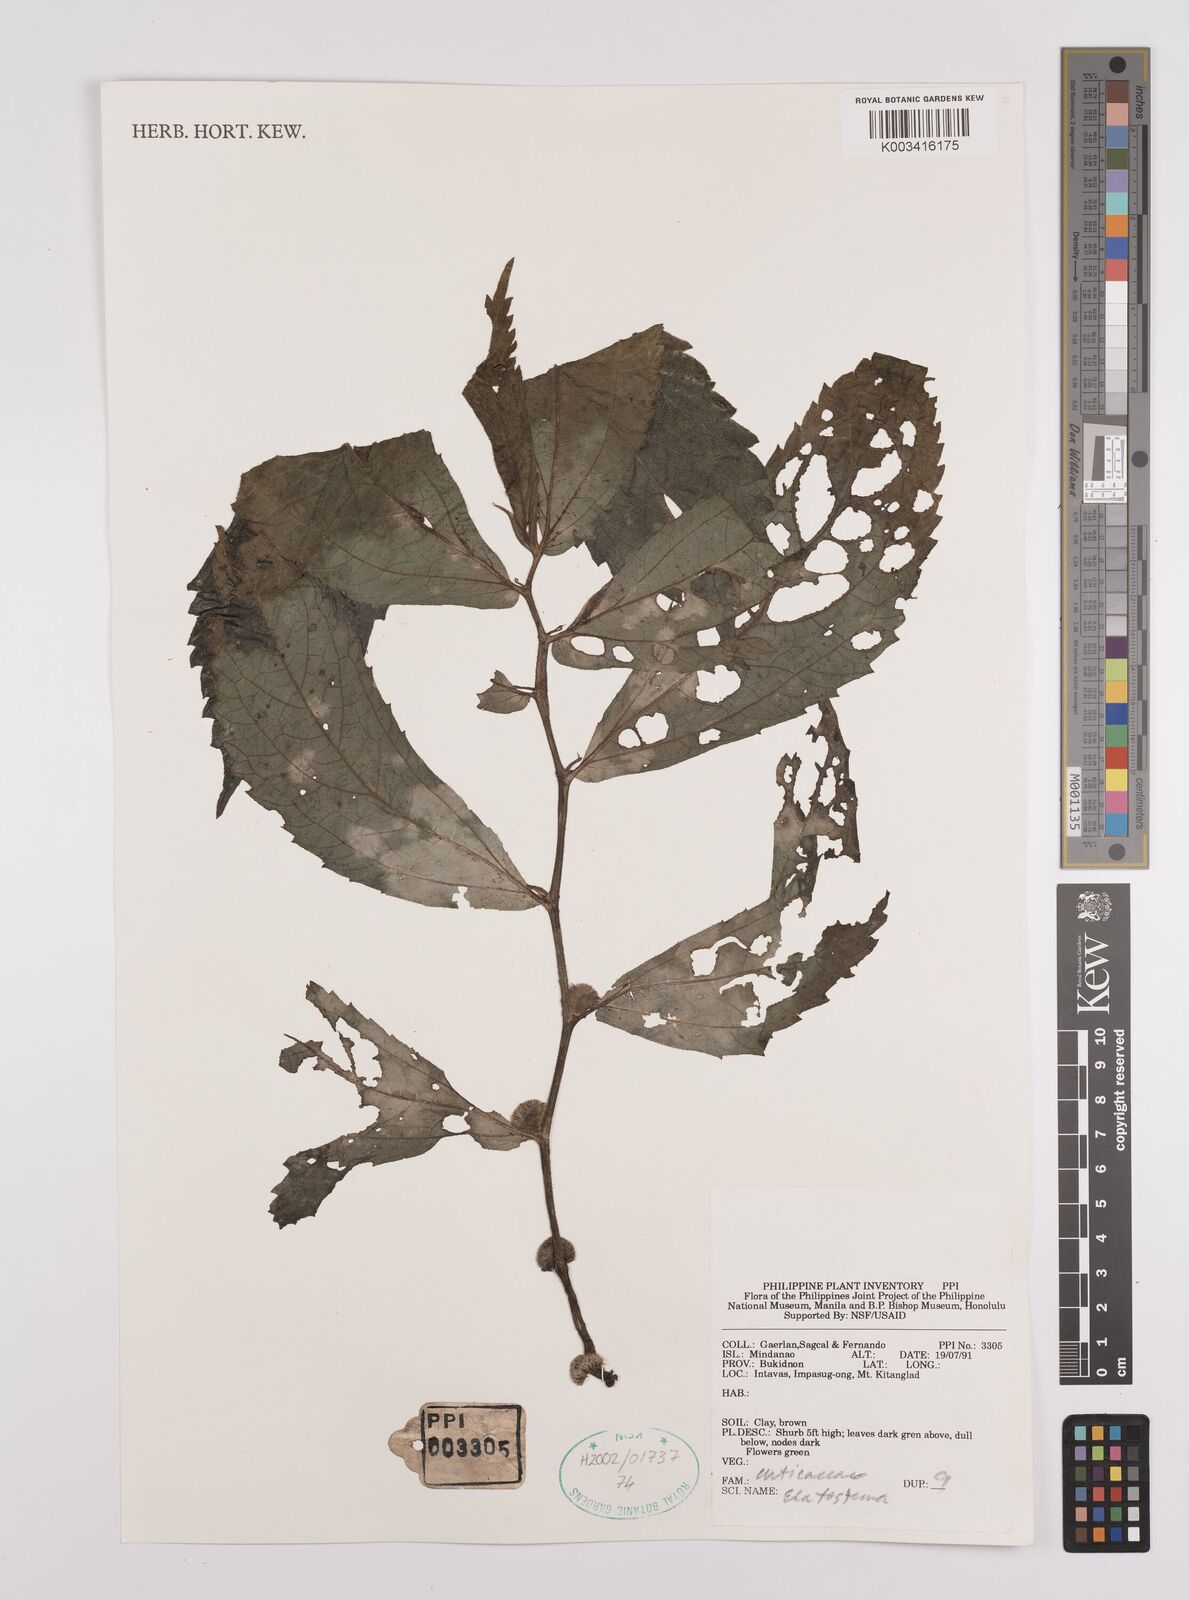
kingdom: Plantae
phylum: Tracheophyta
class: Magnoliopsida
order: Rosales
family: Urticaceae
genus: Elatostema
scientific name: Elatostema
